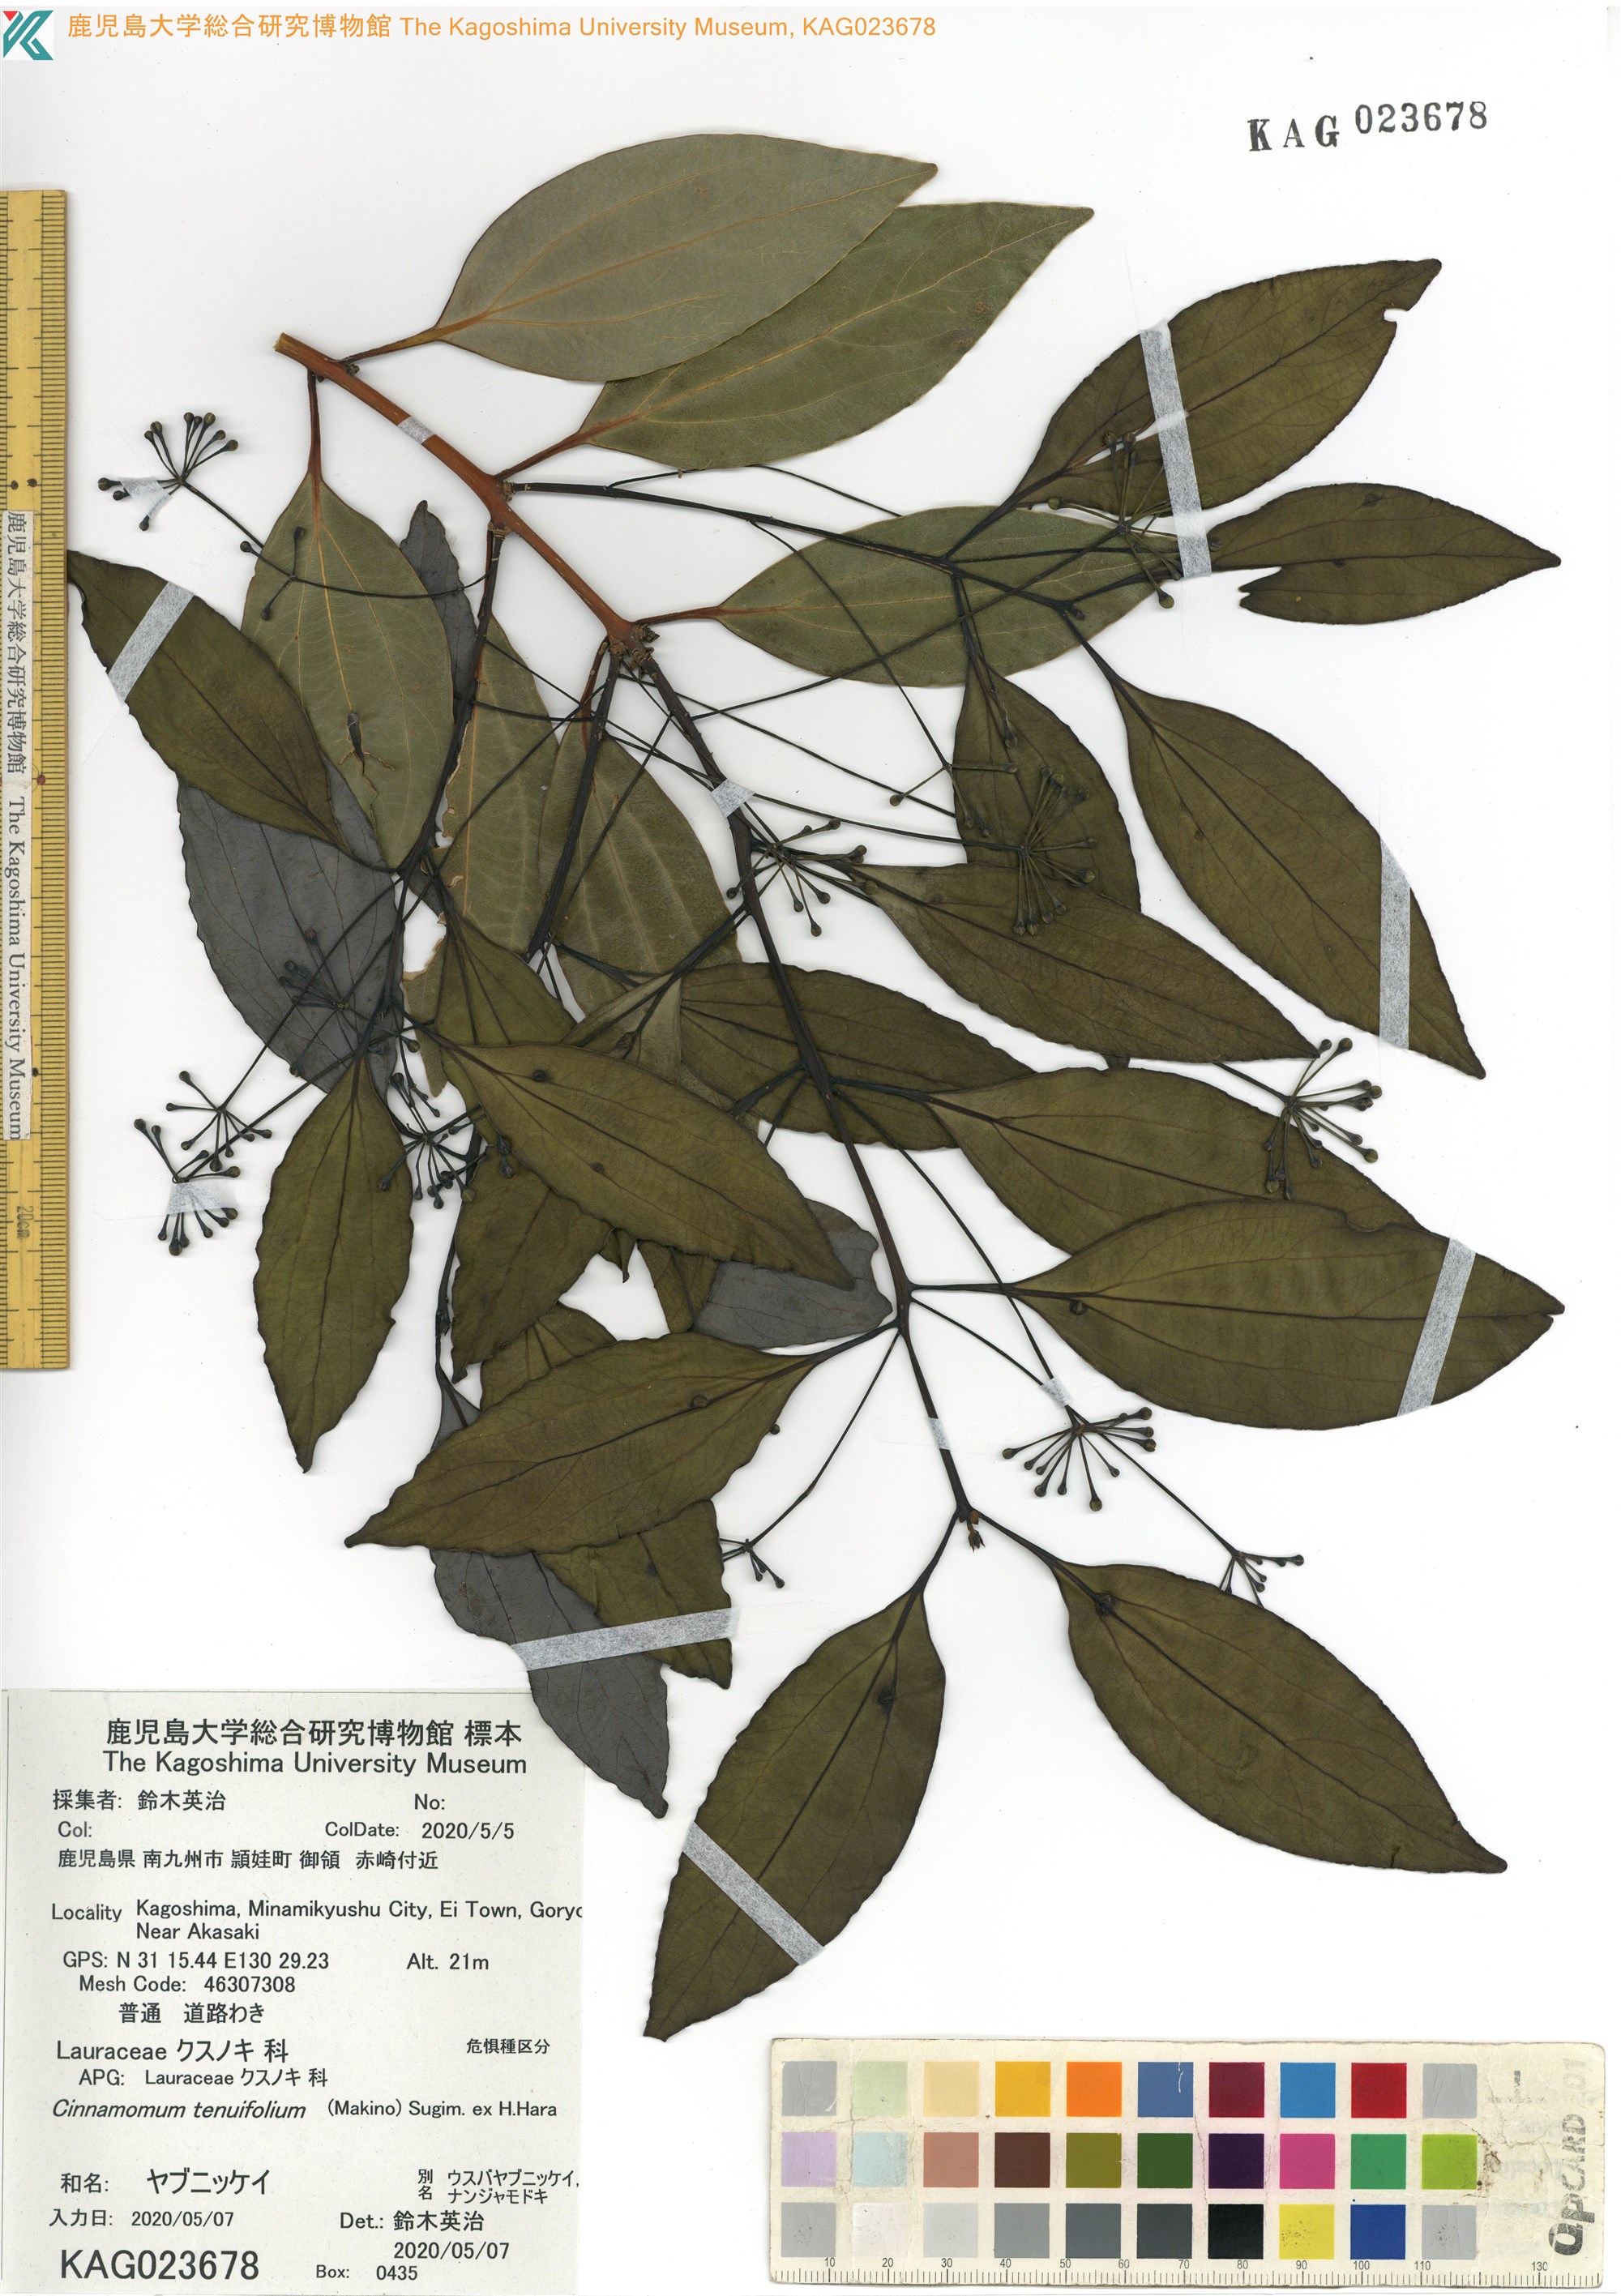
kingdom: Plantae
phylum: Tracheophyta
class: Magnoliopsida
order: Laurales
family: Lauraceae
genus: Cinnamomum
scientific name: Cinnamomum chekiangense
